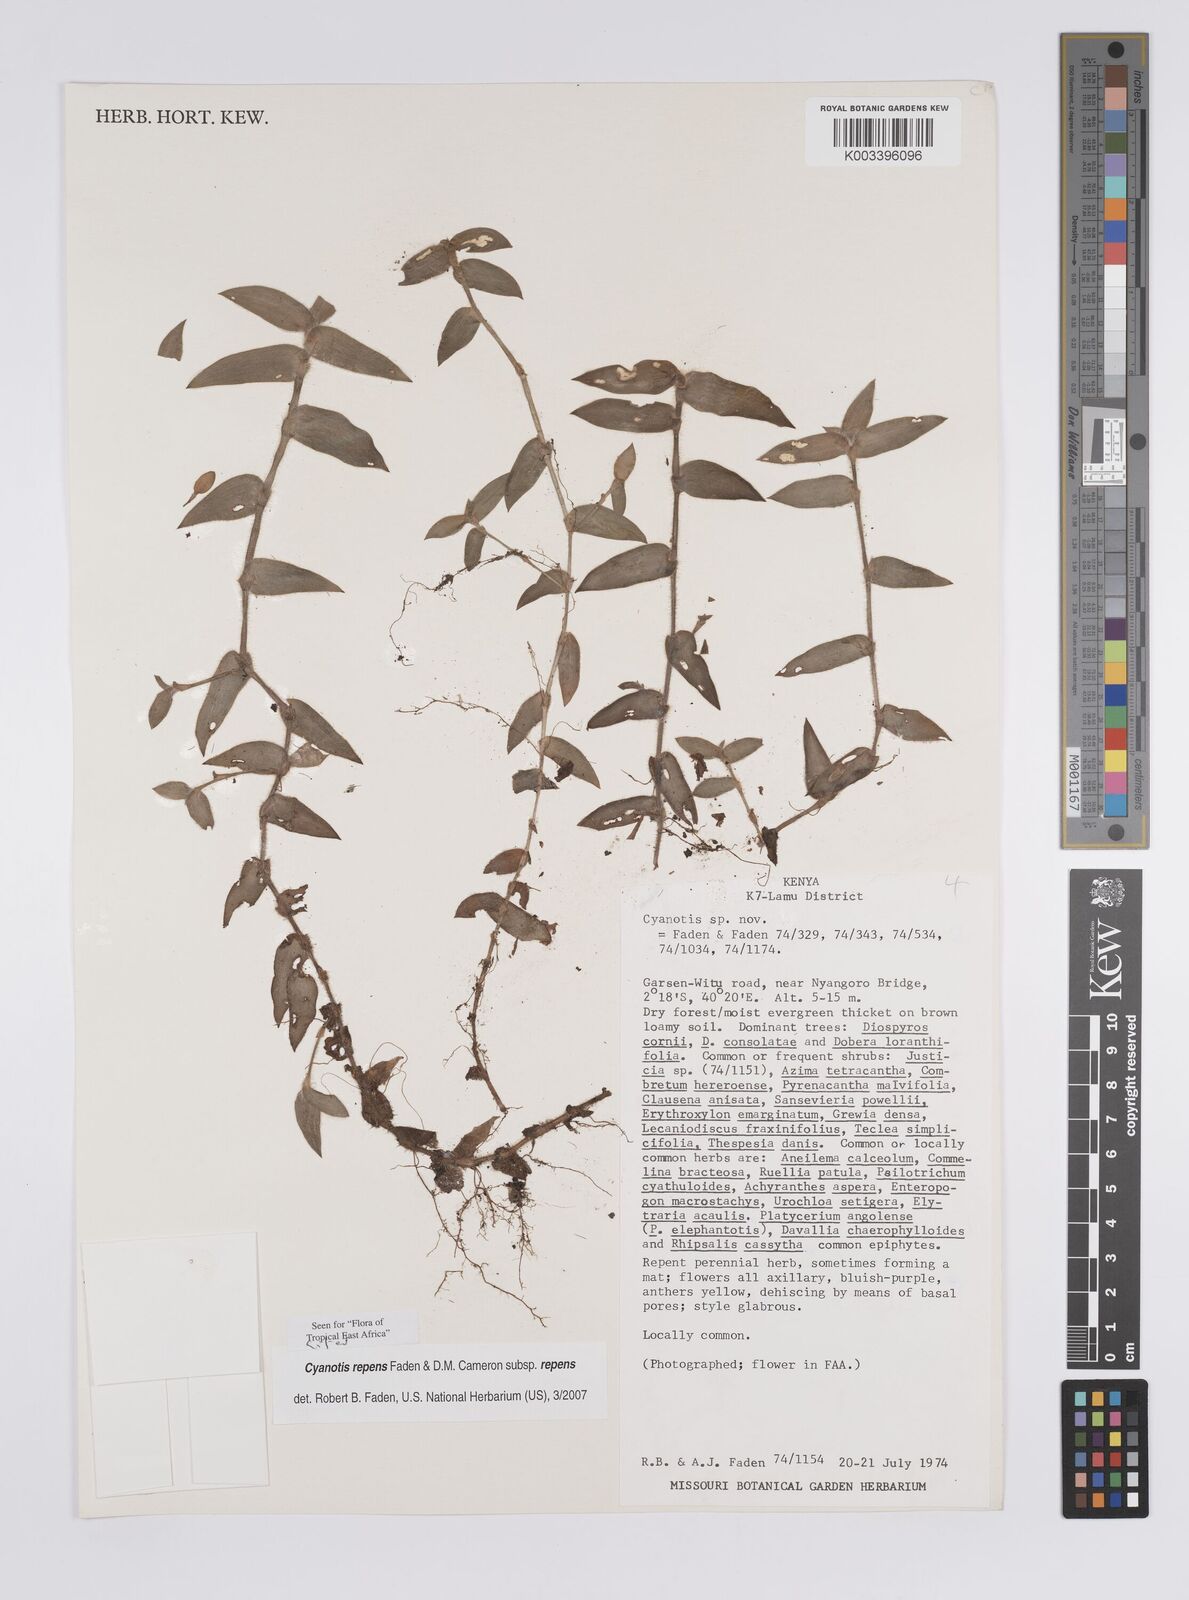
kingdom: Plantae
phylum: Tracheophyta
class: Liliopsida
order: Commelinales
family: Commelinaceae
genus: Cyanotis
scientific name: Cyanotis repens
